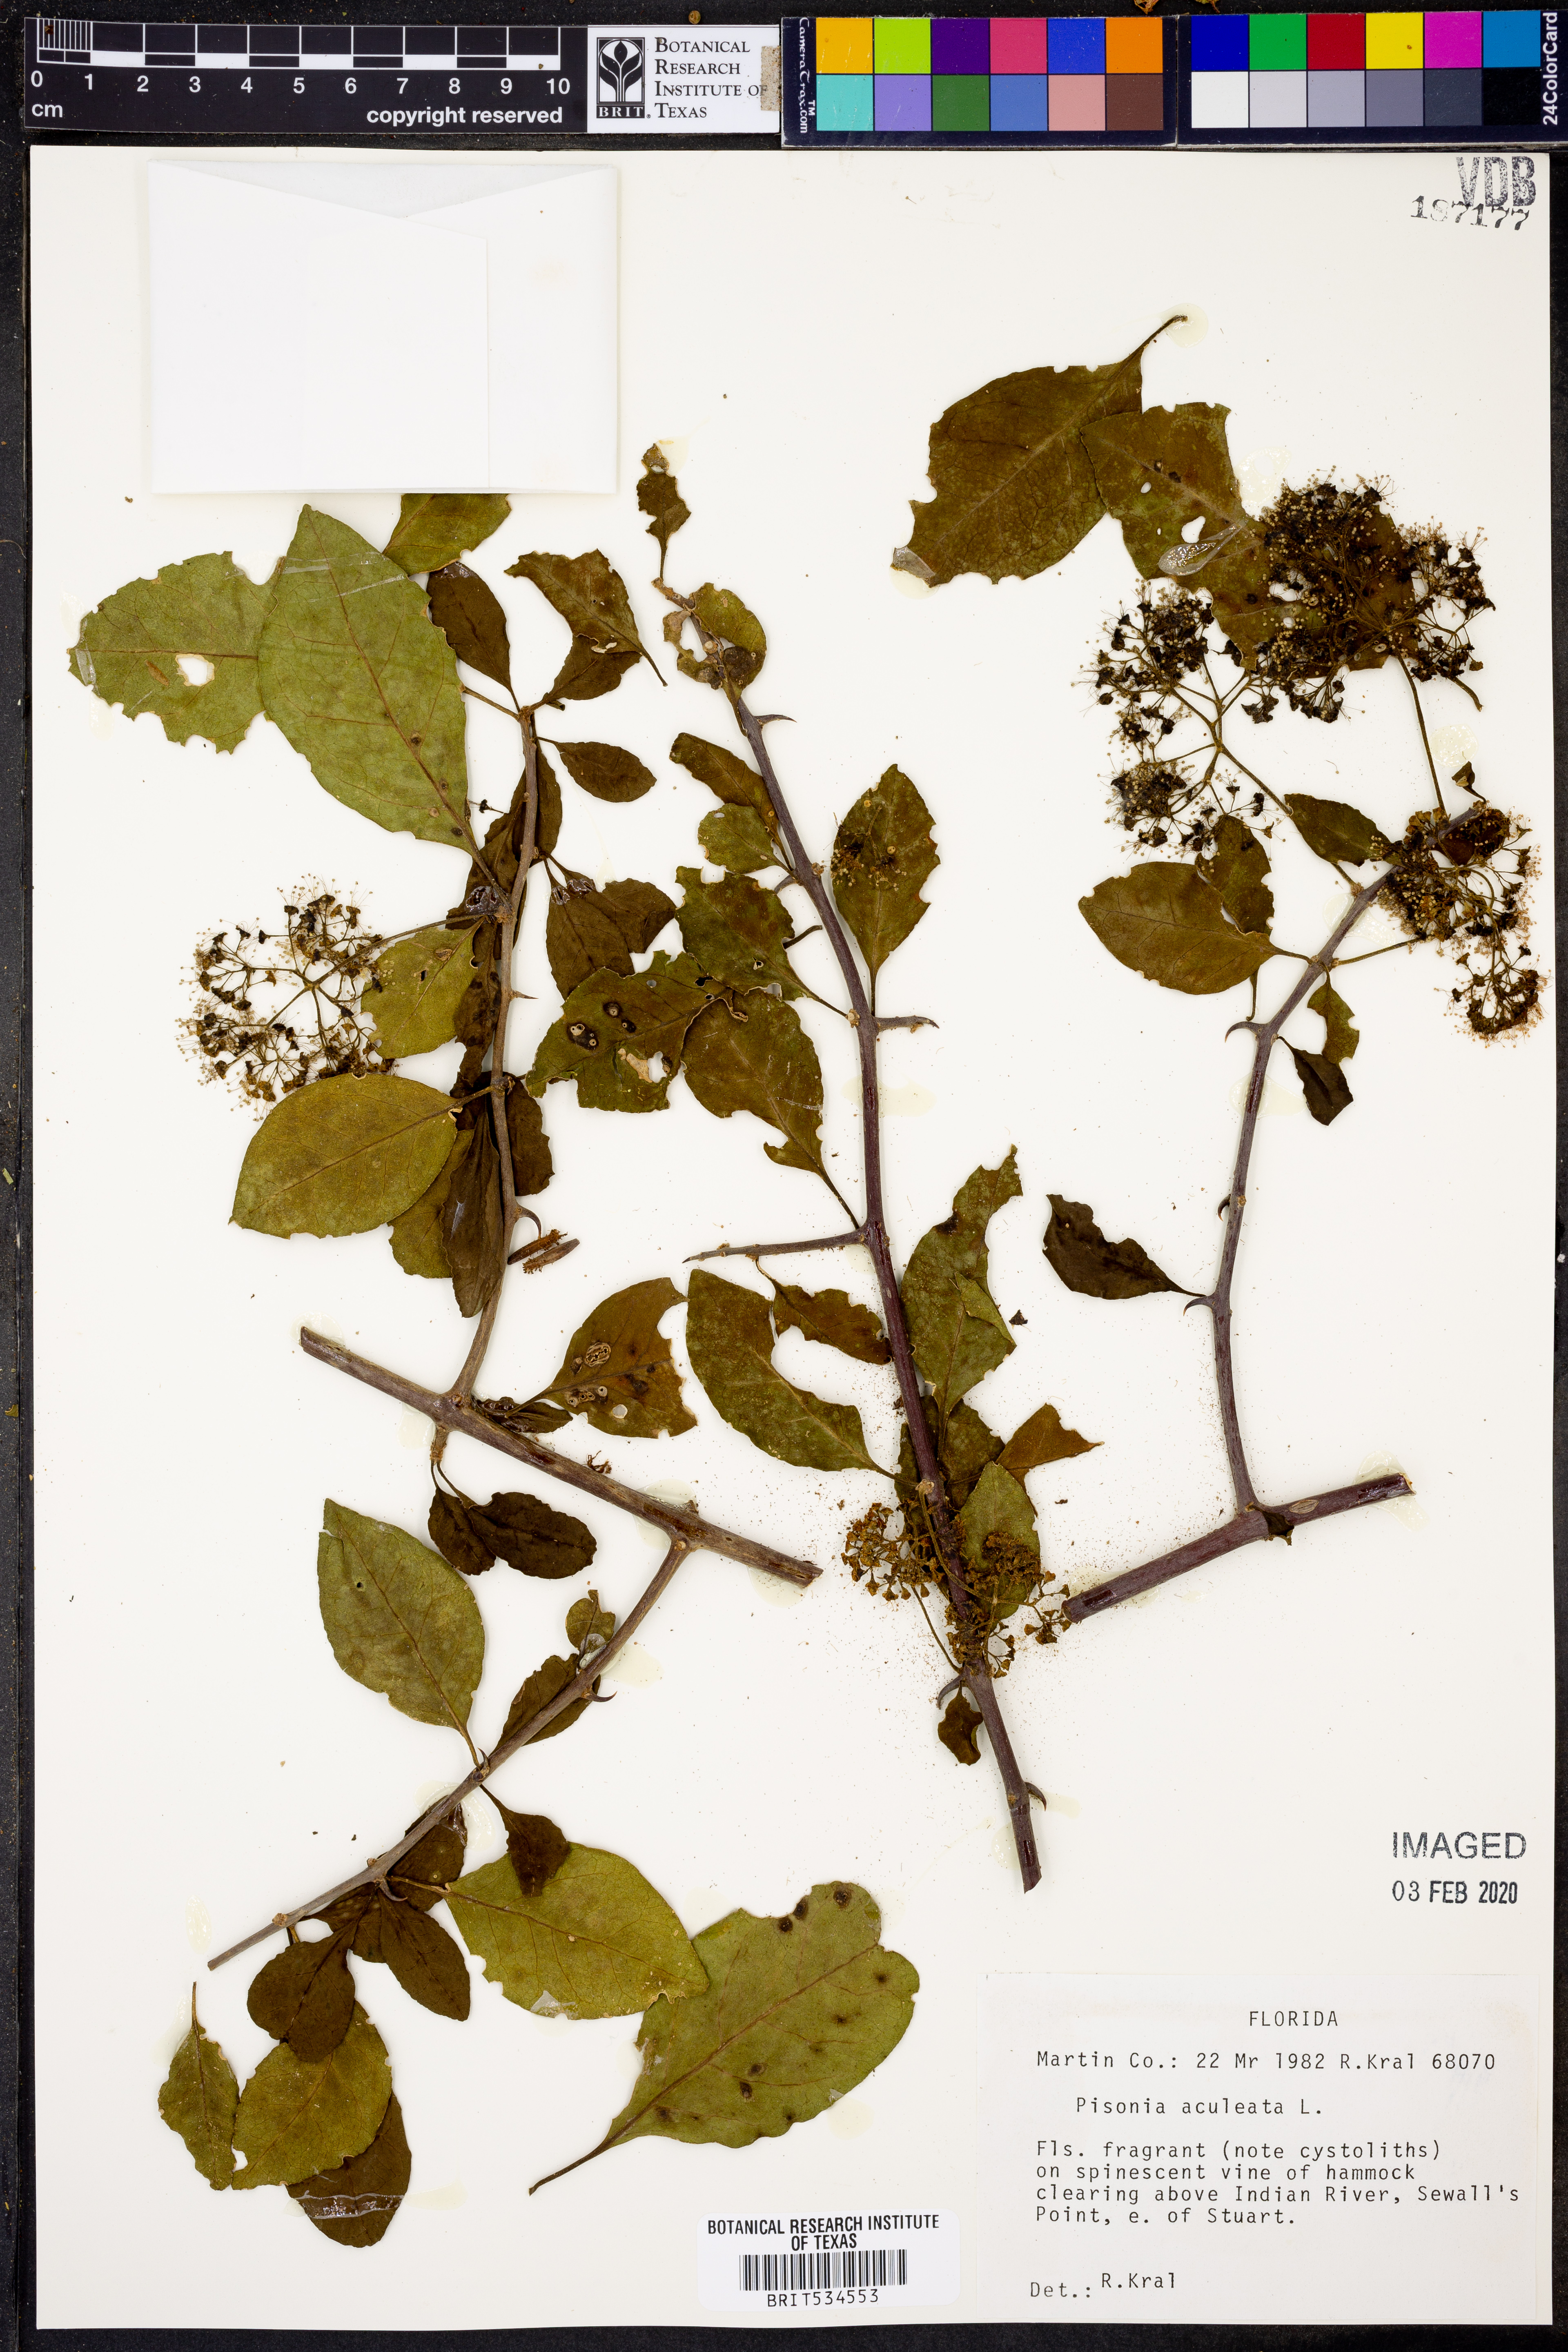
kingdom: Plantae
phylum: Tracheophyta
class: Magnoliopsida
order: Caryophyllales
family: Nyctaginaceae
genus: Pisonia
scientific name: Pisonia aculeata
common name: Cockspur vine
